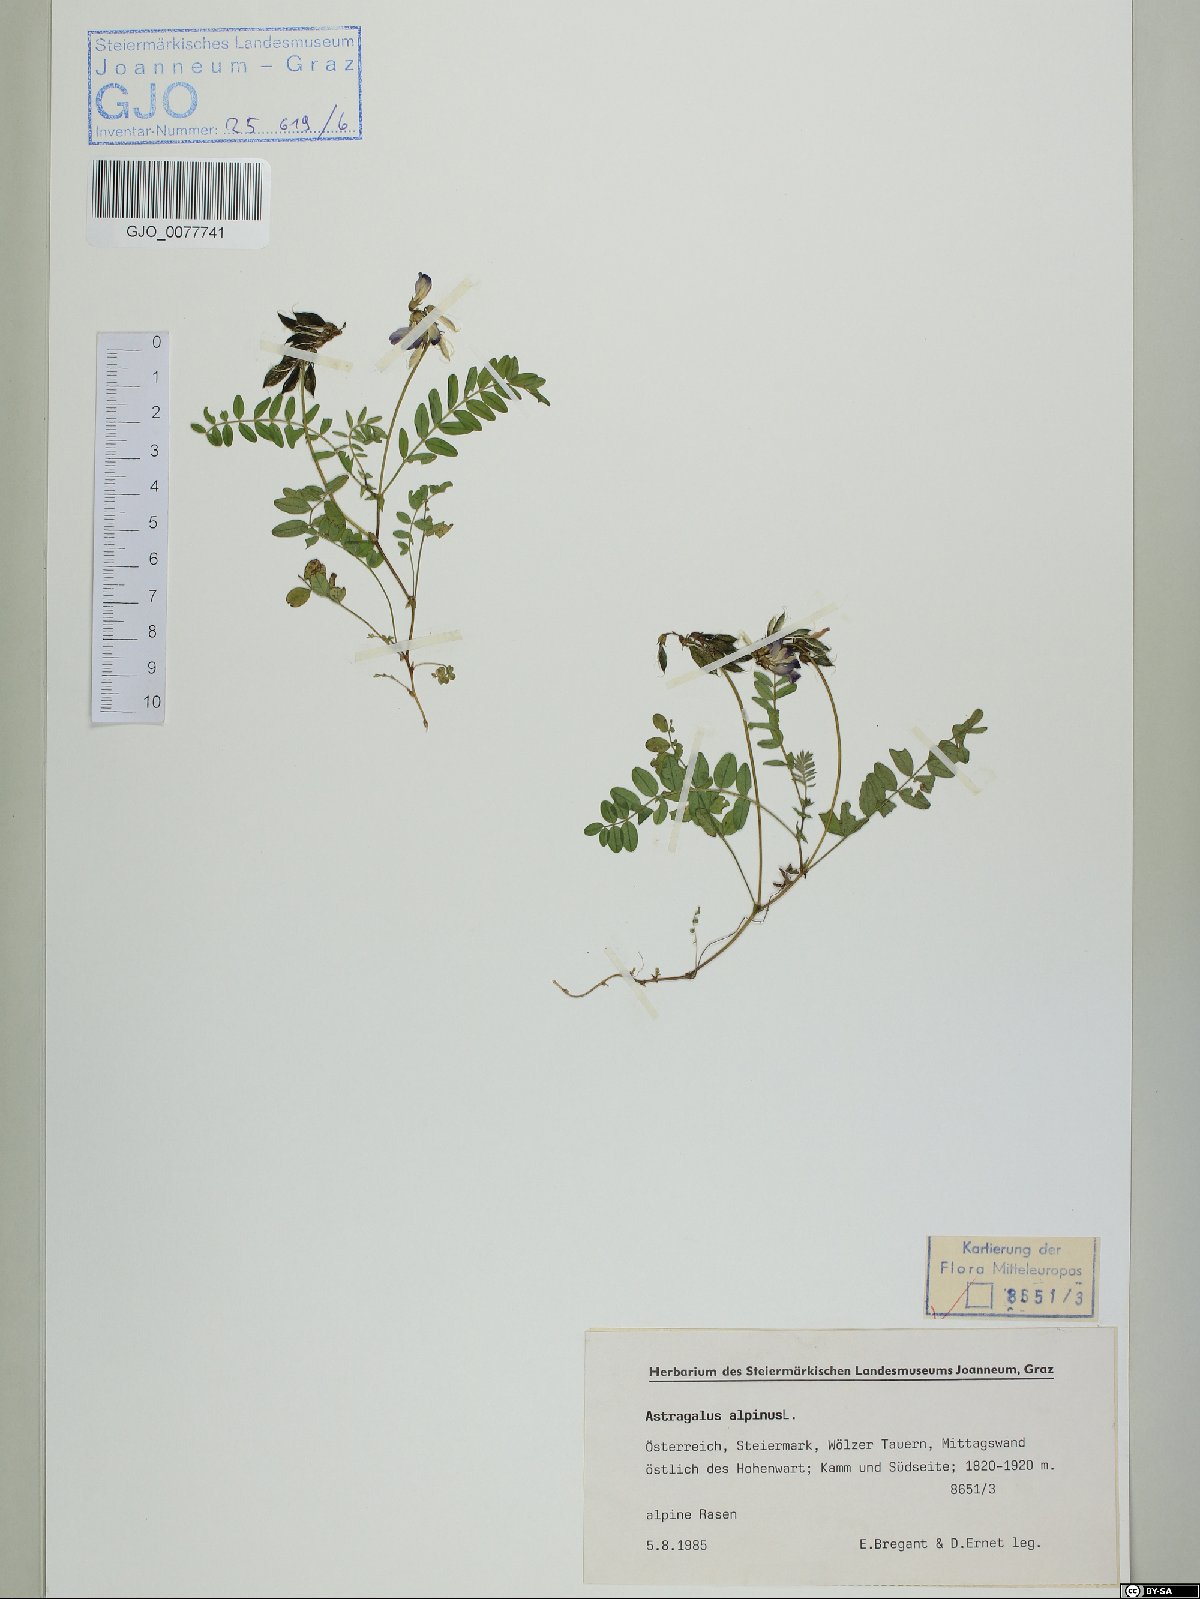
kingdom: Plantae
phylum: Tracheophyta
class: Magnoliopsida
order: Fabales
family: Fabaceae
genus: Astragalus
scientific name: Astragalus alpinus
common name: Alpine milk-vetch
